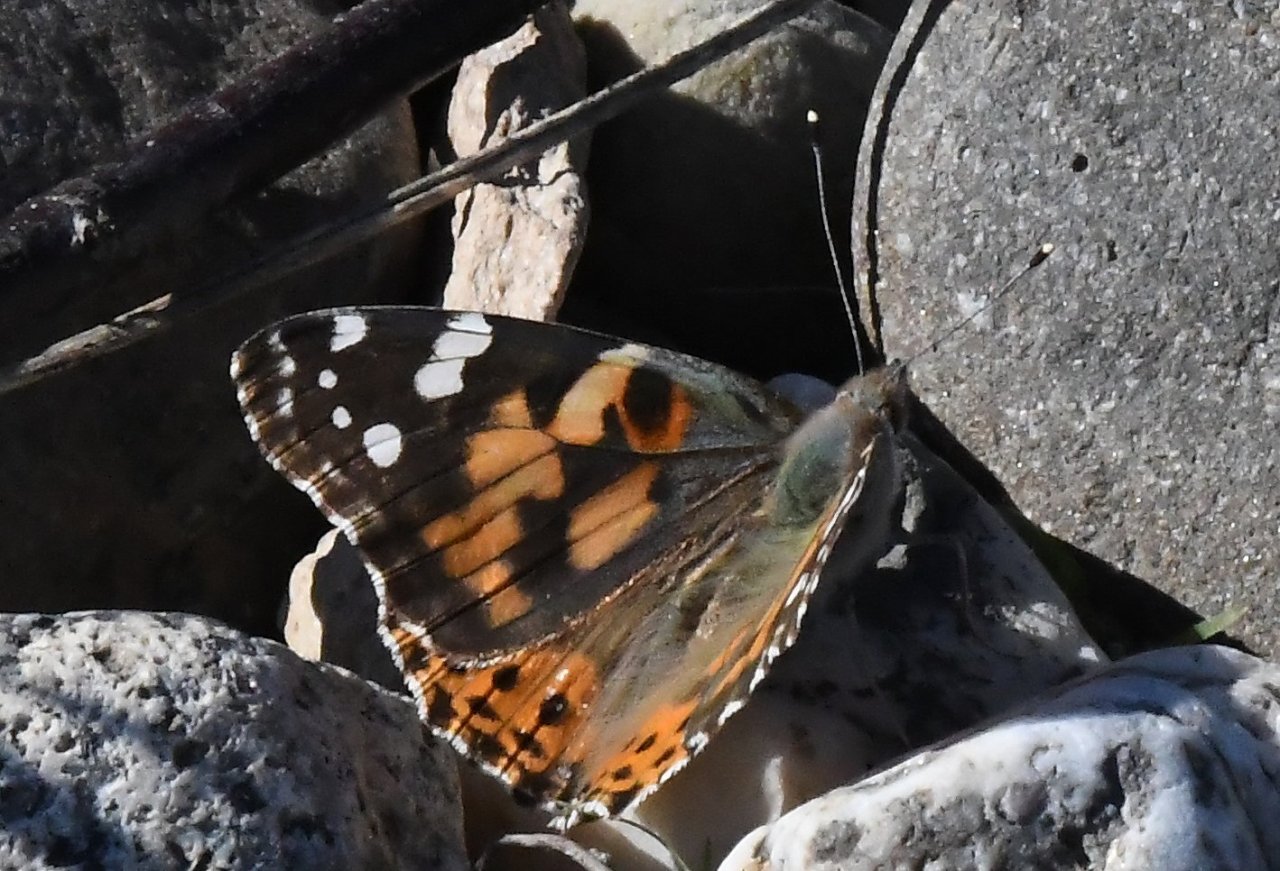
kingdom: Animalia
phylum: Arthropoda
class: Insecta
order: Lepidoptera
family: Nymphalidae
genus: Vanessa
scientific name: Vanessa cardui
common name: Painted Lady
